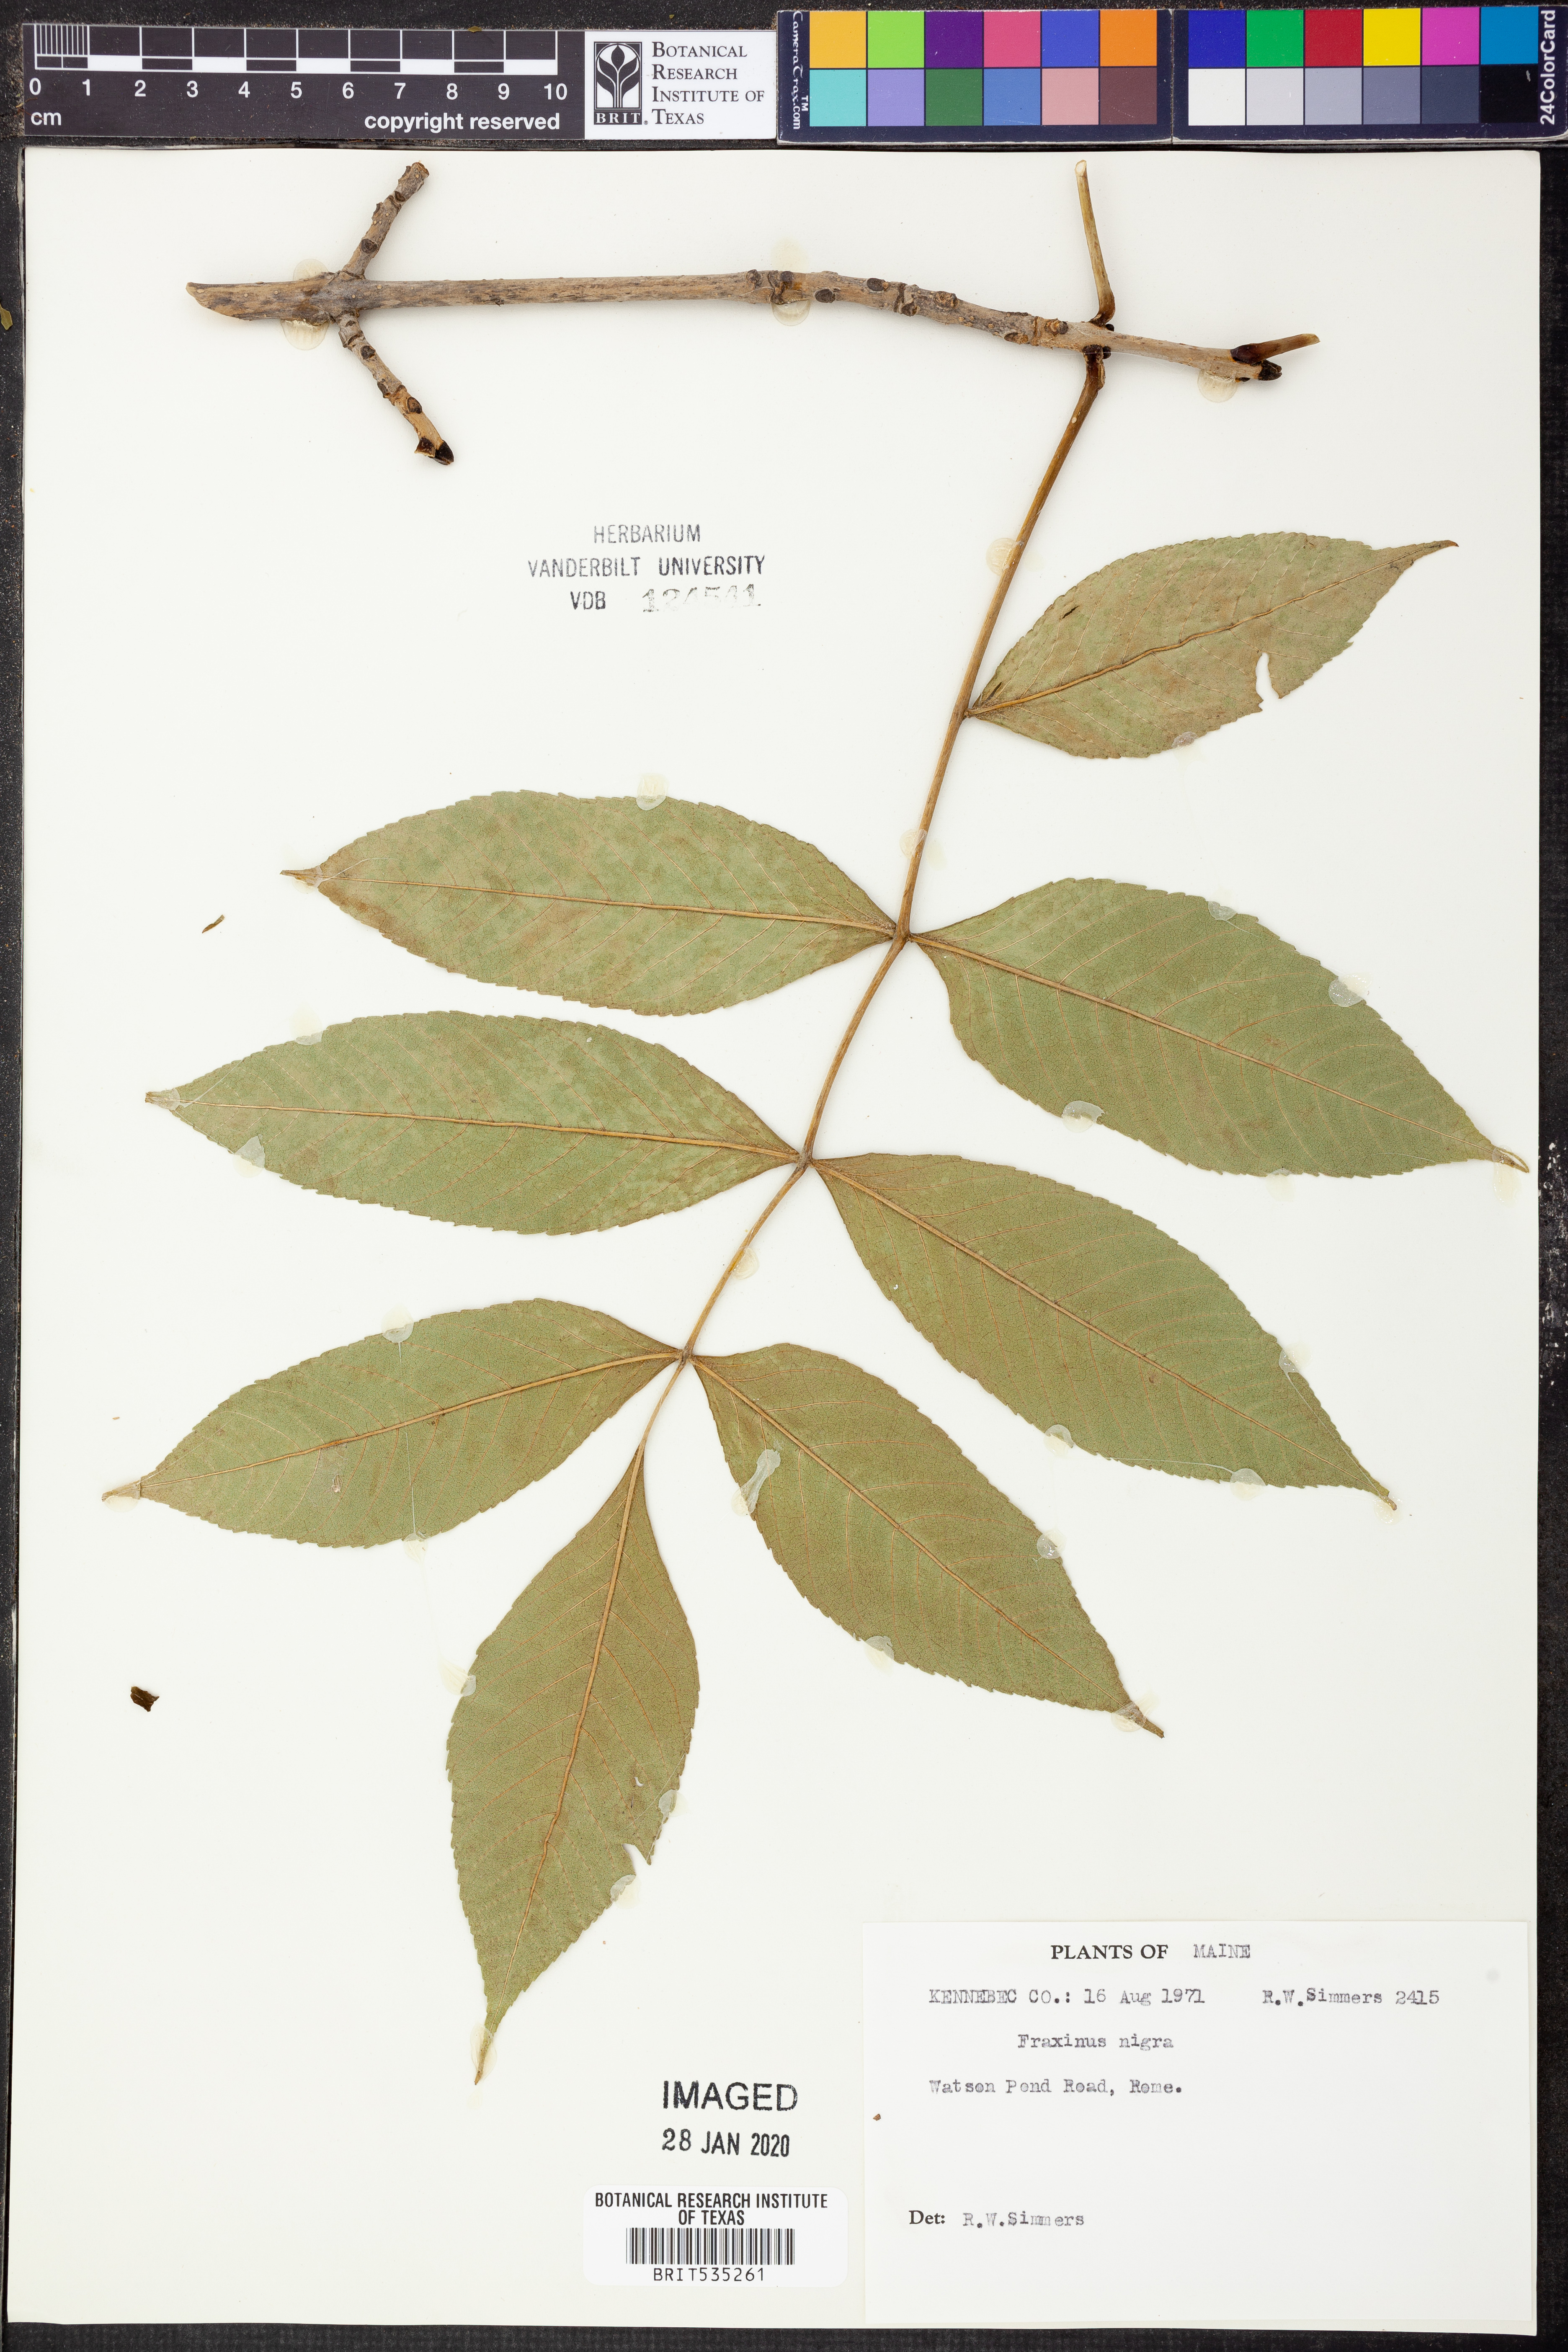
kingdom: Plantae
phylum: Tracheophyta
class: Magnoliopsida
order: Lamiales
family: Oleaceae
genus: Fraxinus
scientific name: Fraxinus nigra
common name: Black ash
